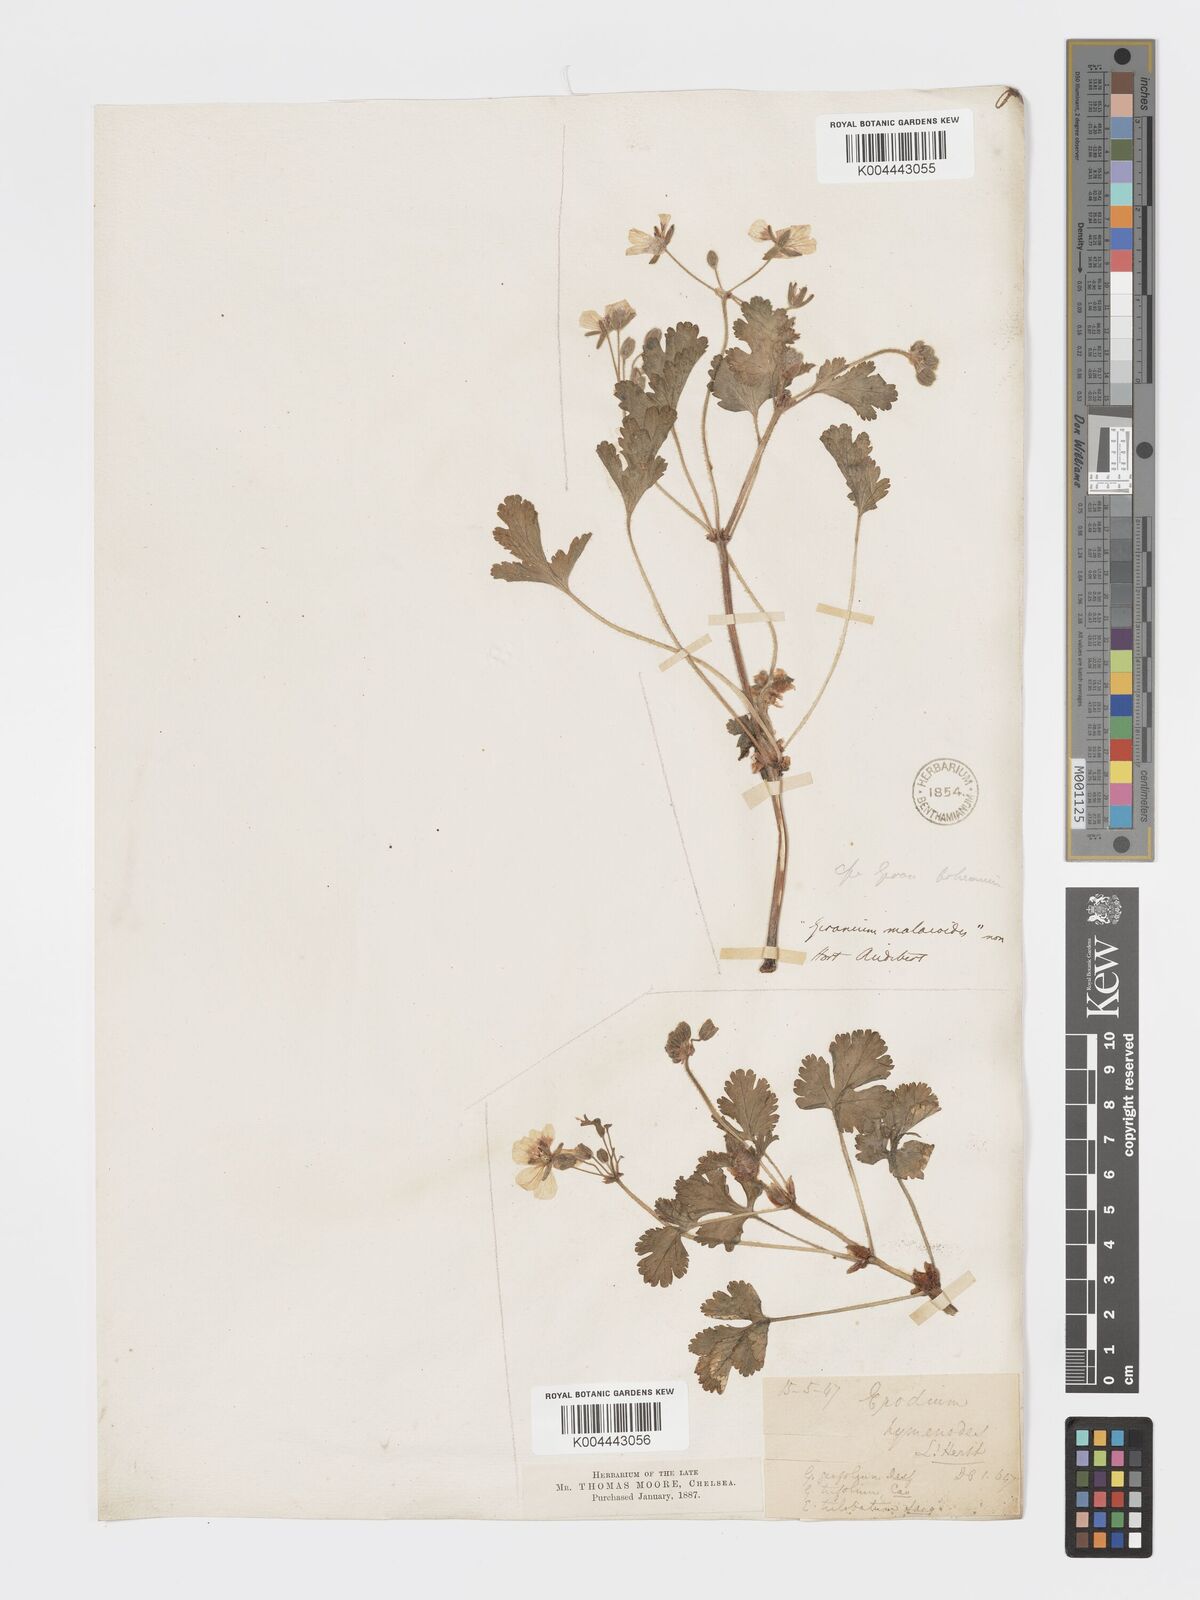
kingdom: Plantae
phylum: Tracheophyta
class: Magnoliopsida
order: Geraniales
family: Geraniaceae
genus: Erodium
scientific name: Erodium trifolium
